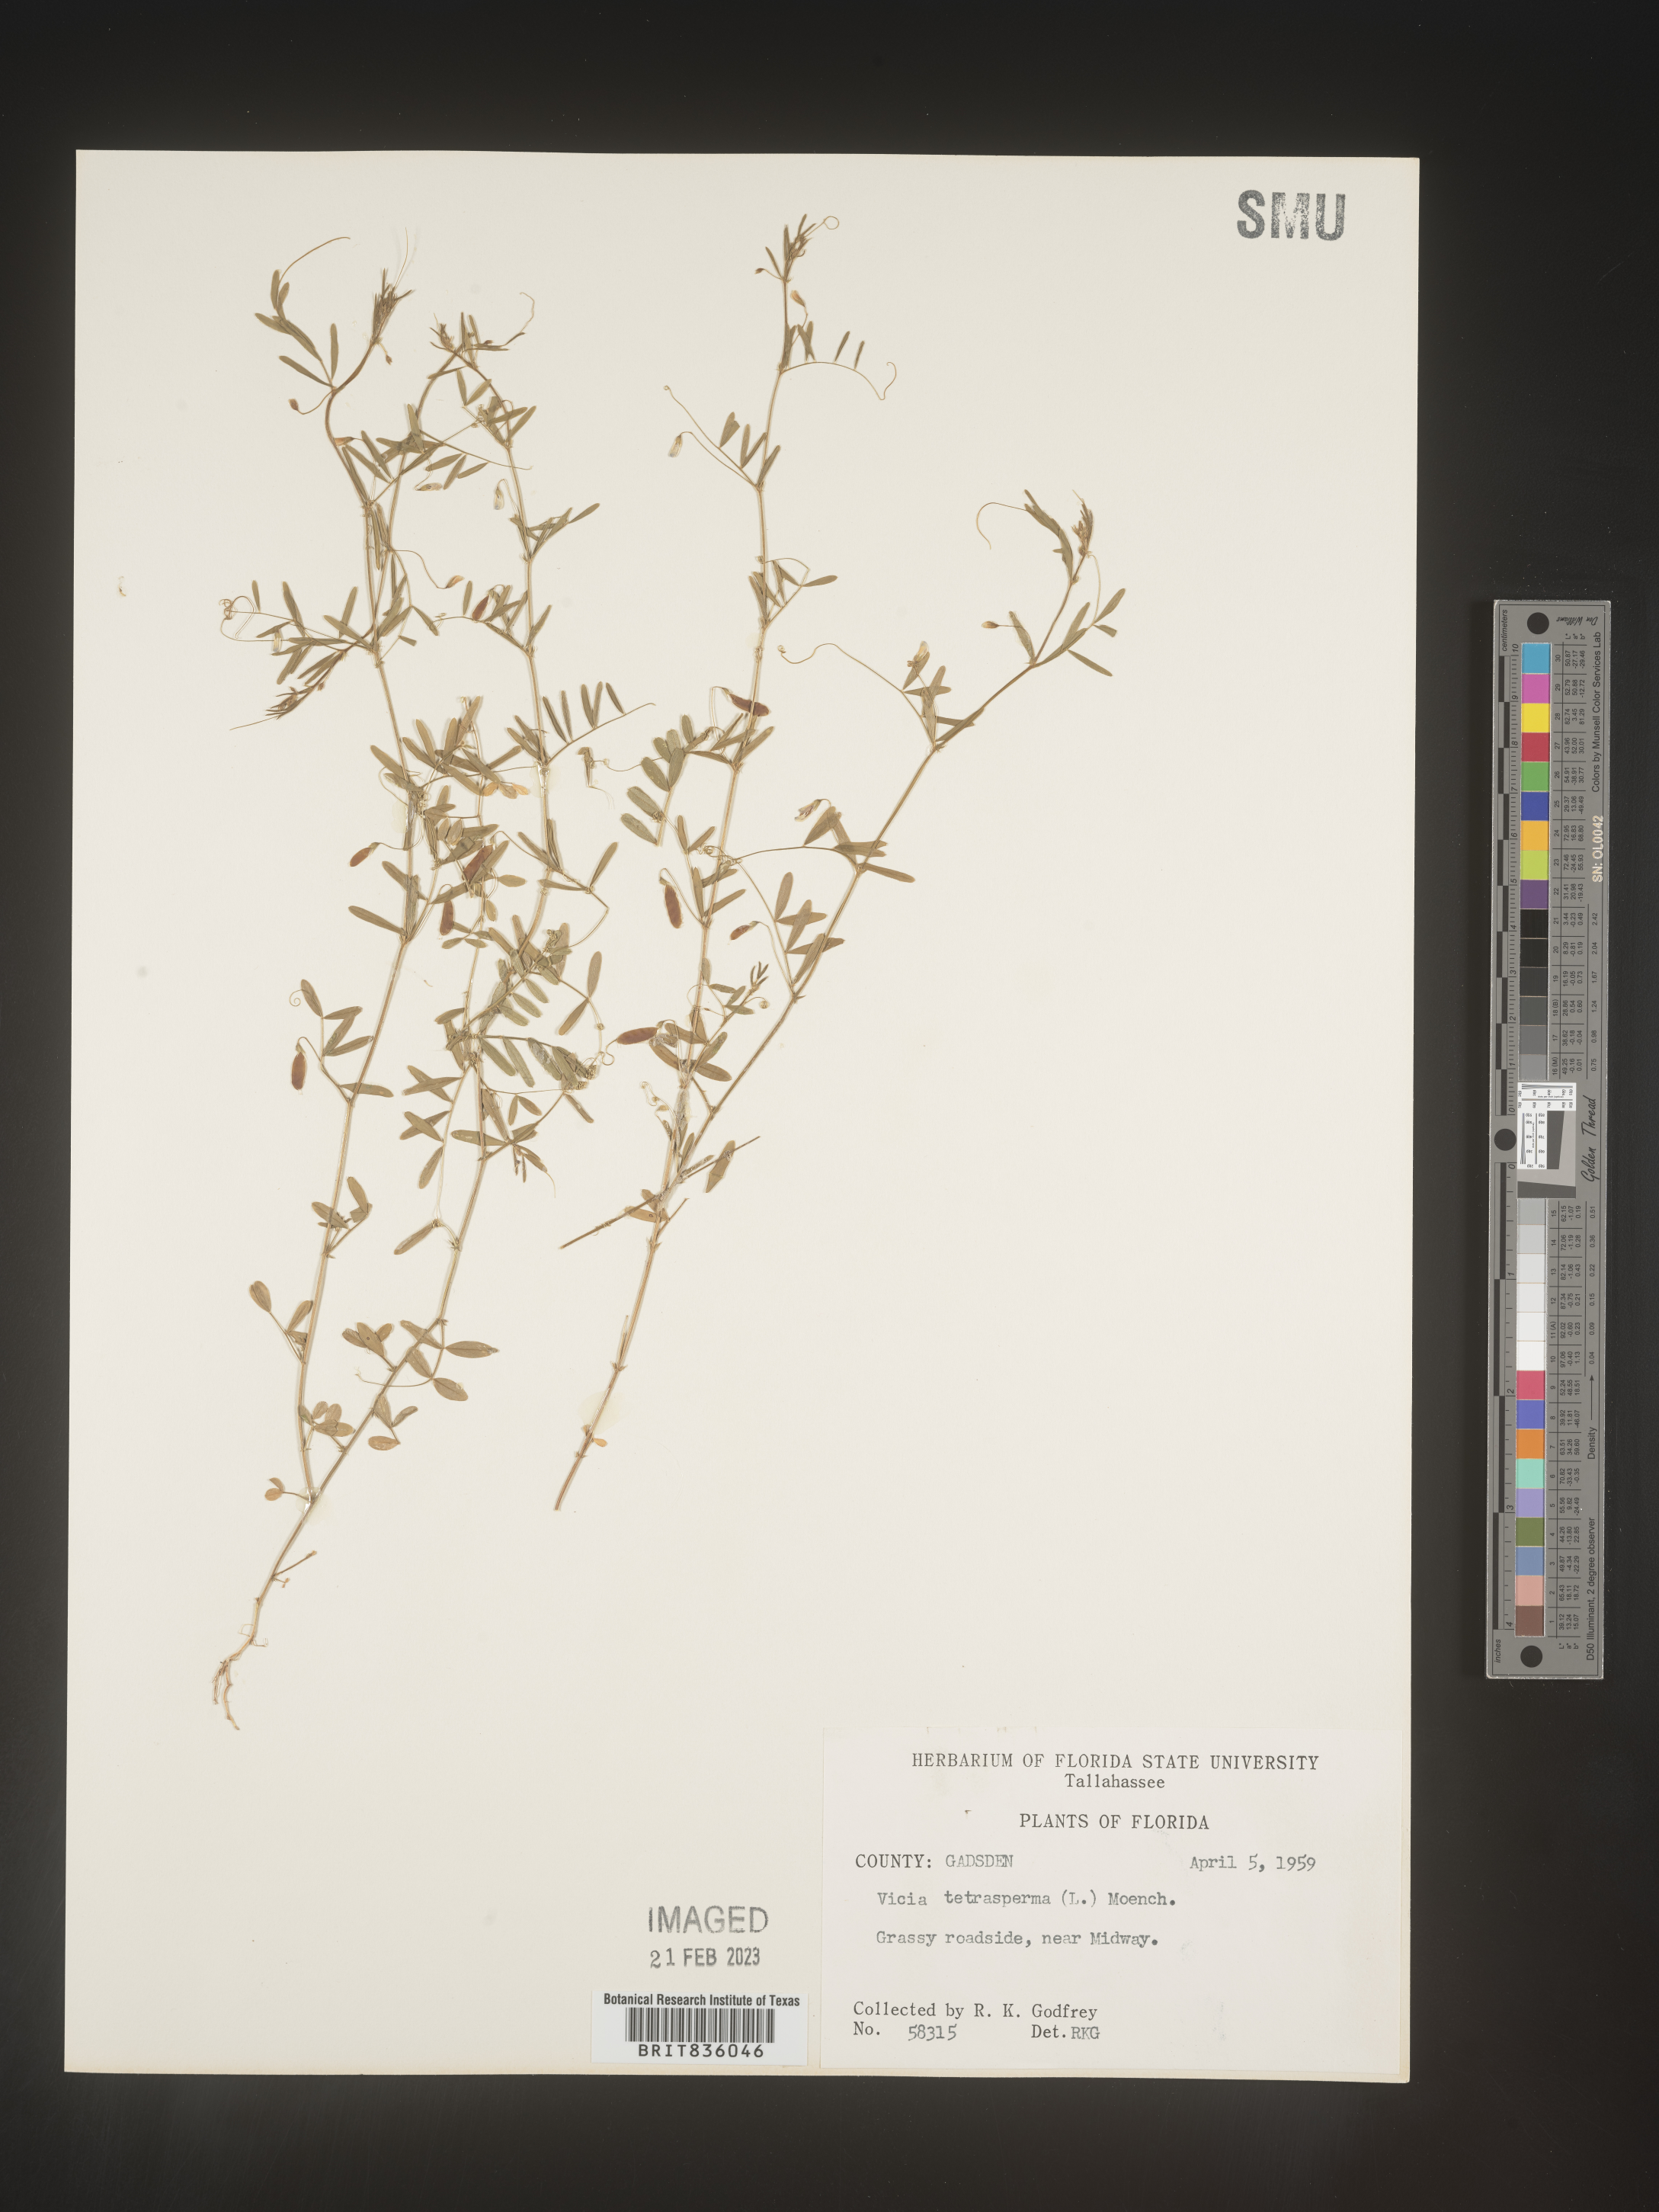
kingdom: Plantae
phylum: Tracheophyta
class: Magnoliopsida
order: Fabales
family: Fabaceae
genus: Vicia
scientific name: Vicia tetrasperma
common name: Smooth tare
